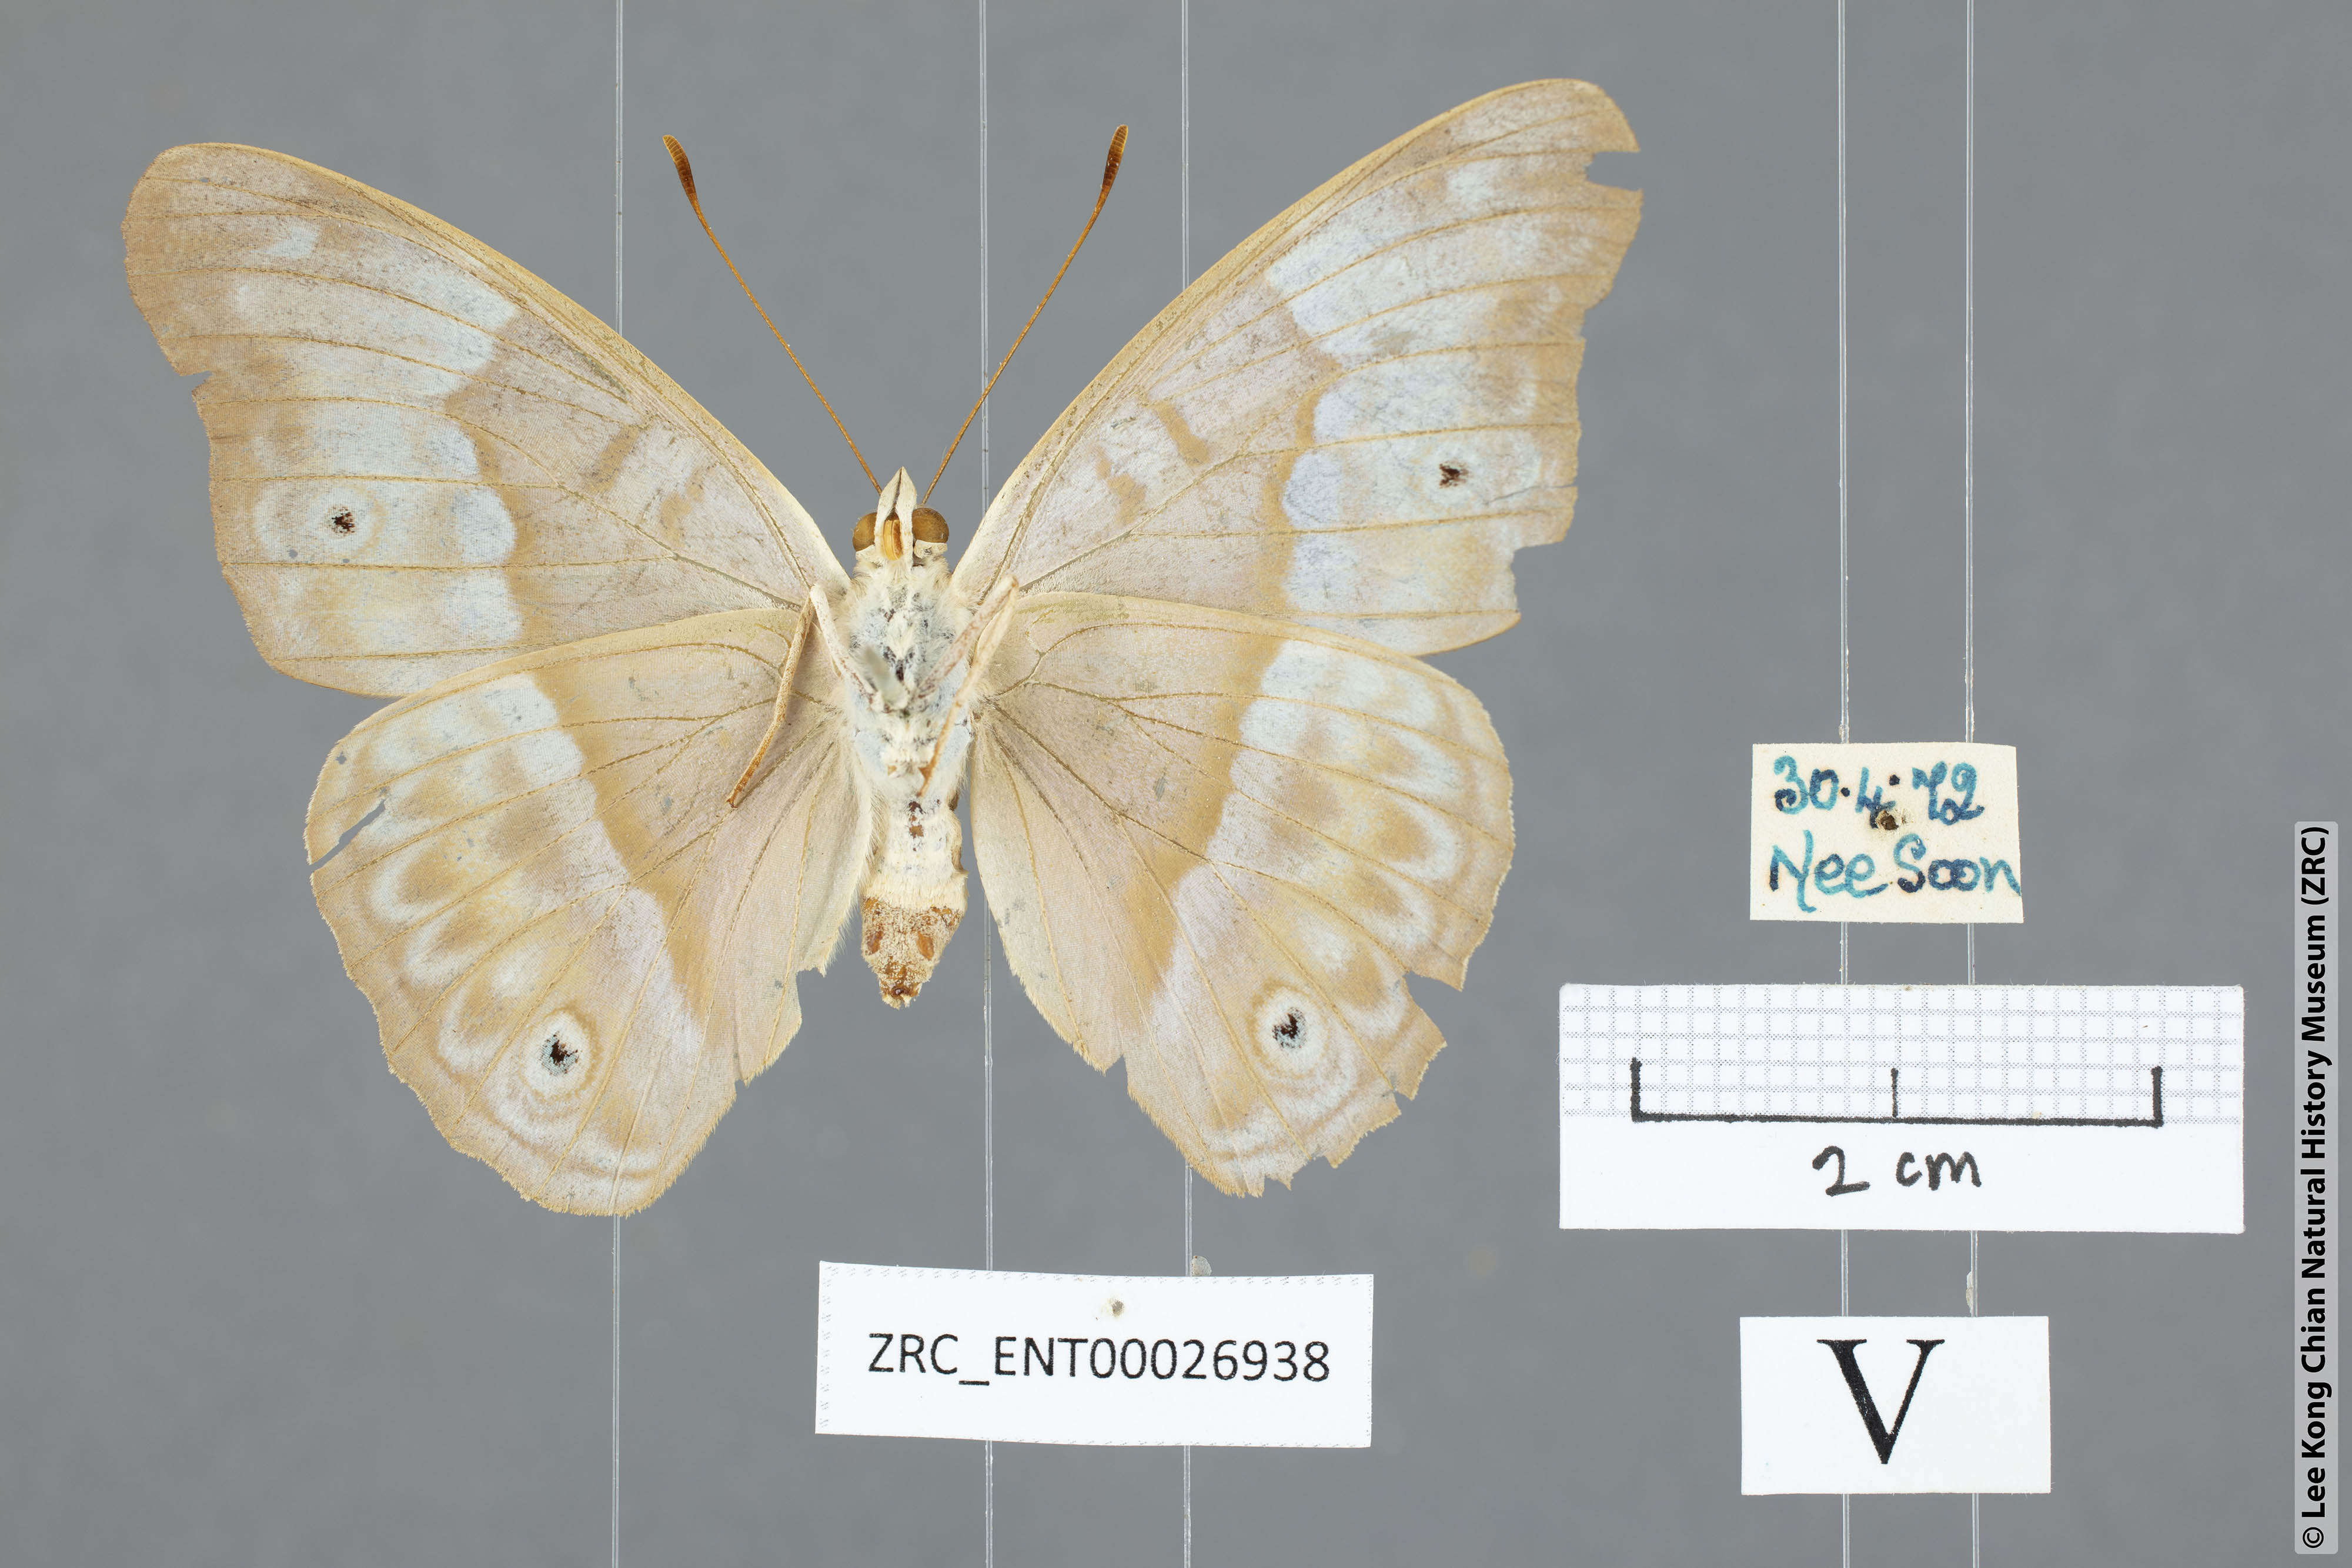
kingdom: Animalia
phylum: Arthropoda
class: Insecta
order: Lepidoptera
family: Nymphalidae
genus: Eulaceura
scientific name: Eulaceura osteria
